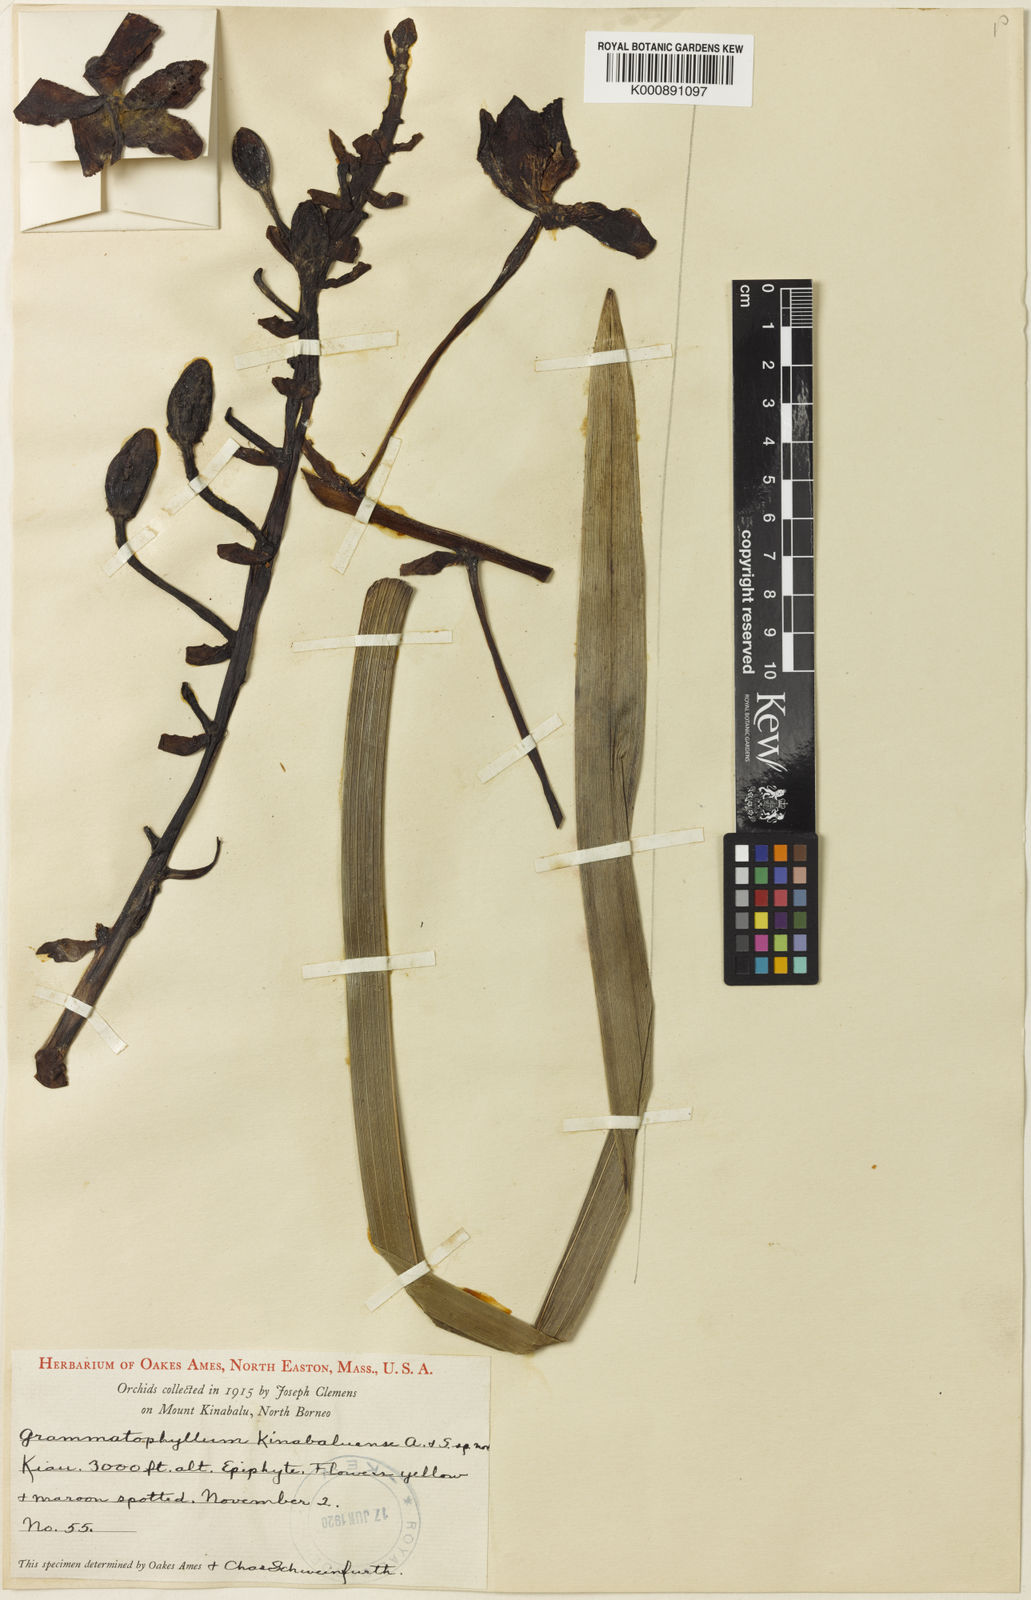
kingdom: Plantae
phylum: Tracheophyta
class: Liliopsida
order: Asparagales
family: Orchidaceae
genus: Grammatophyllum
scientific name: Grammatophyllum kinabaluense
